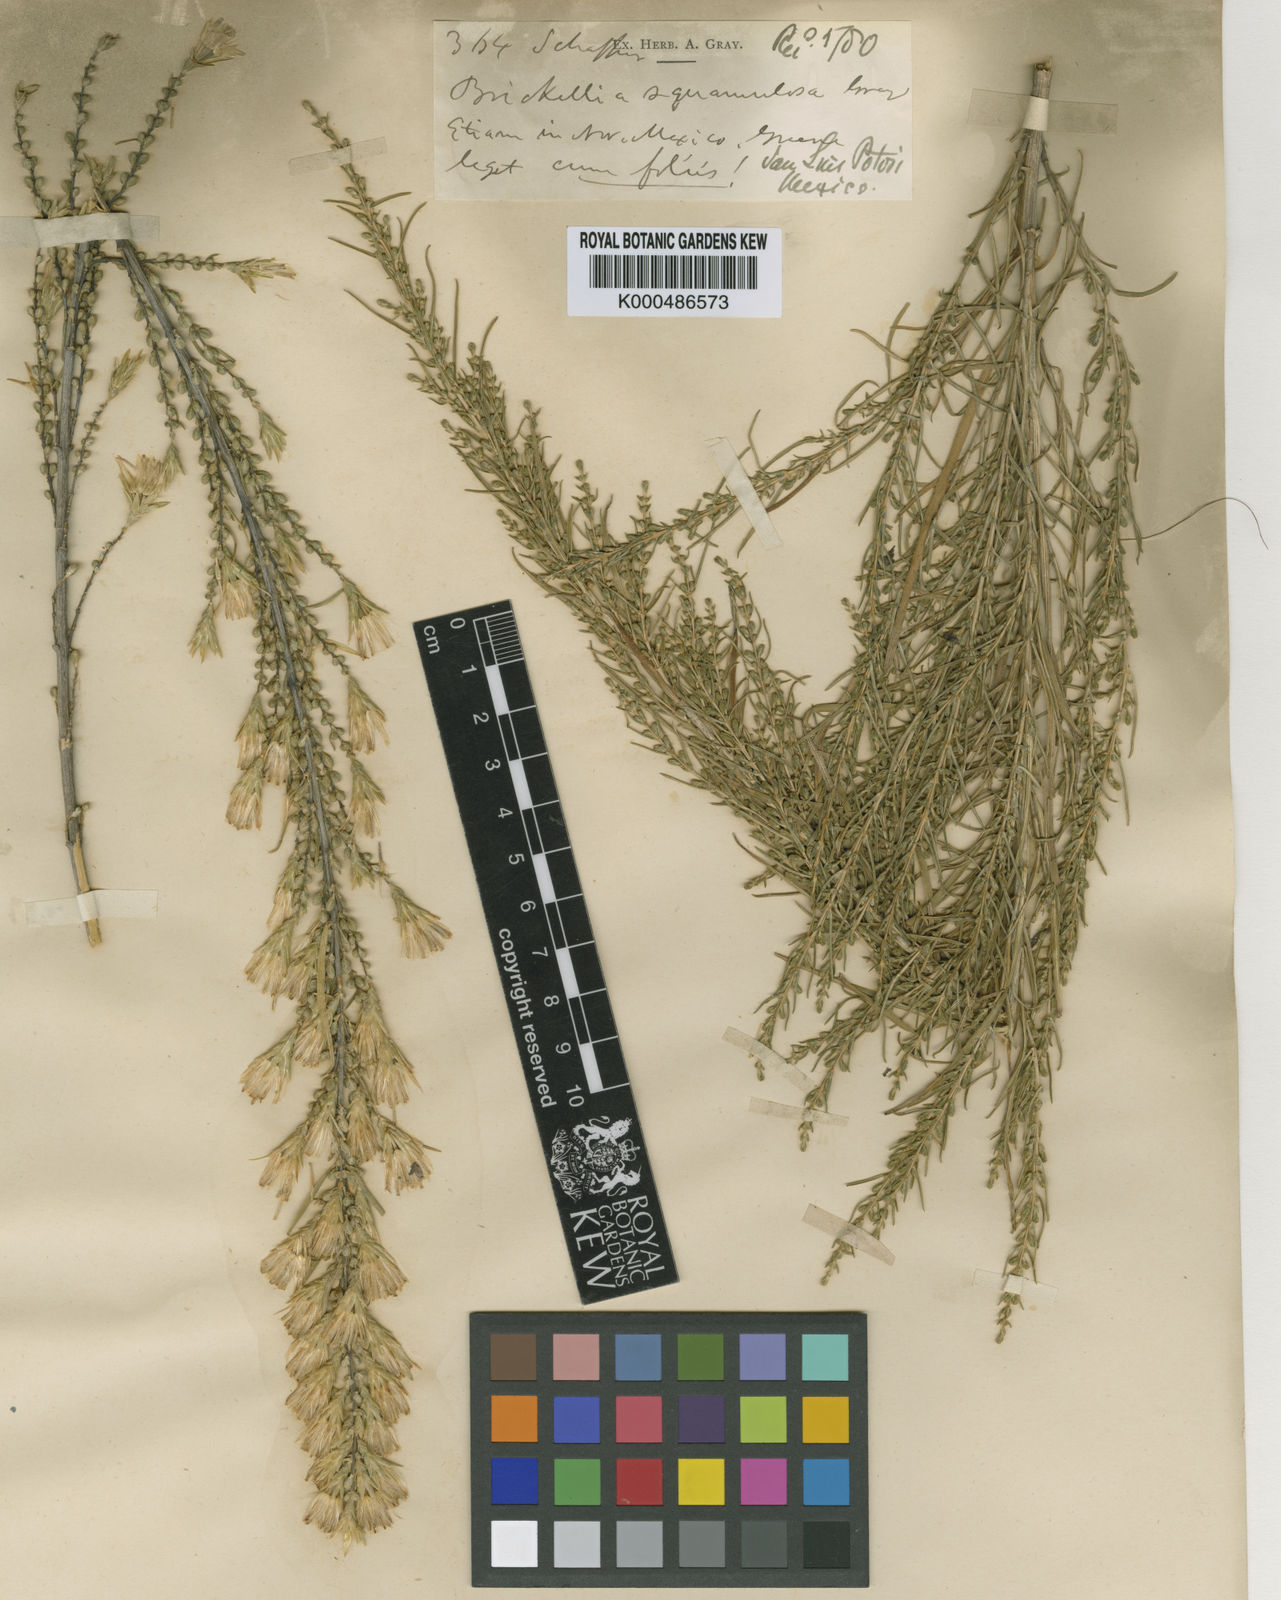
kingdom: Plantae
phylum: Tracheophyta
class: Magnoliopsida
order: Asterales
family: Asteraceae
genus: Asanthus
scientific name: Asanthus squamulosus
